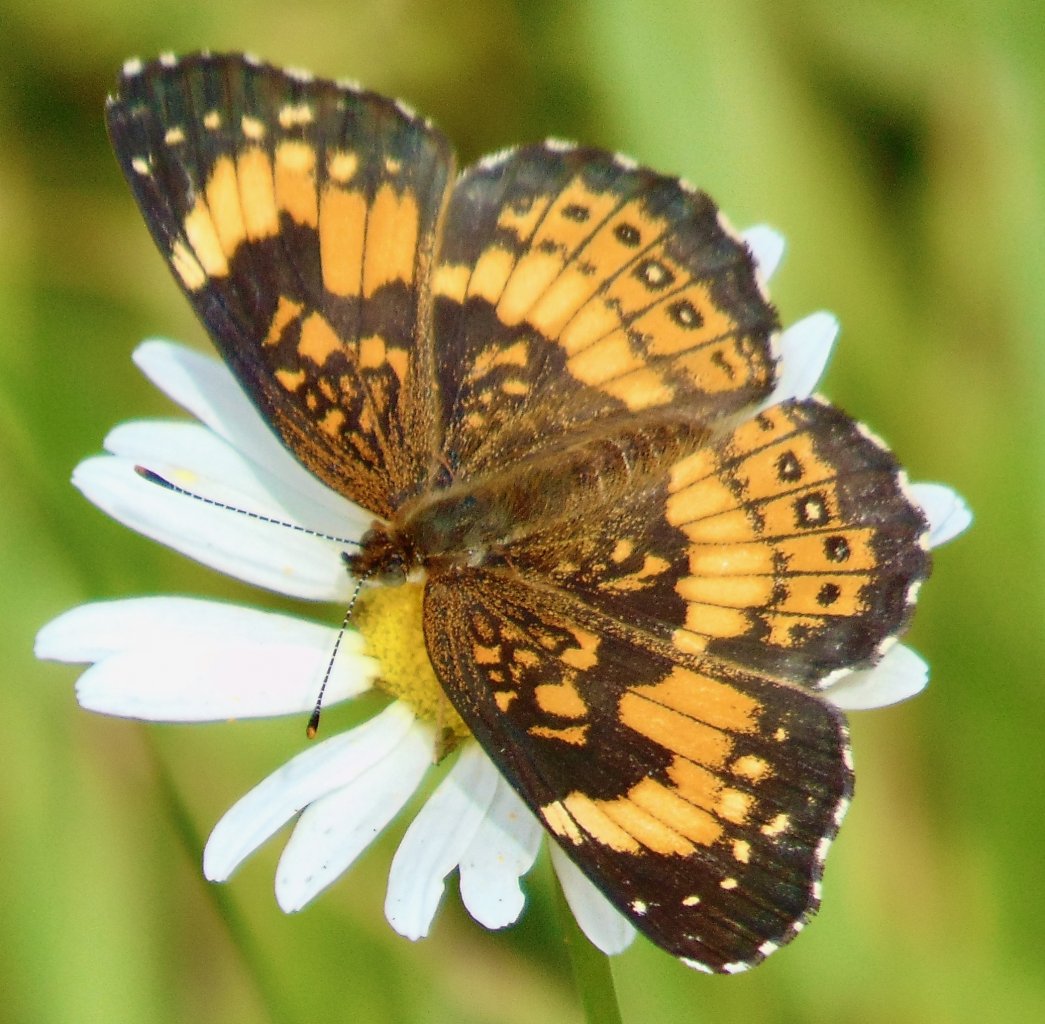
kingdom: Animalia
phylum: Arthropoda
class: Insecta
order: Lepidoptera
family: Nymphalidae
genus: Chlosyne
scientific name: Chlosyne nycteis
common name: Silvery Checkerspot
